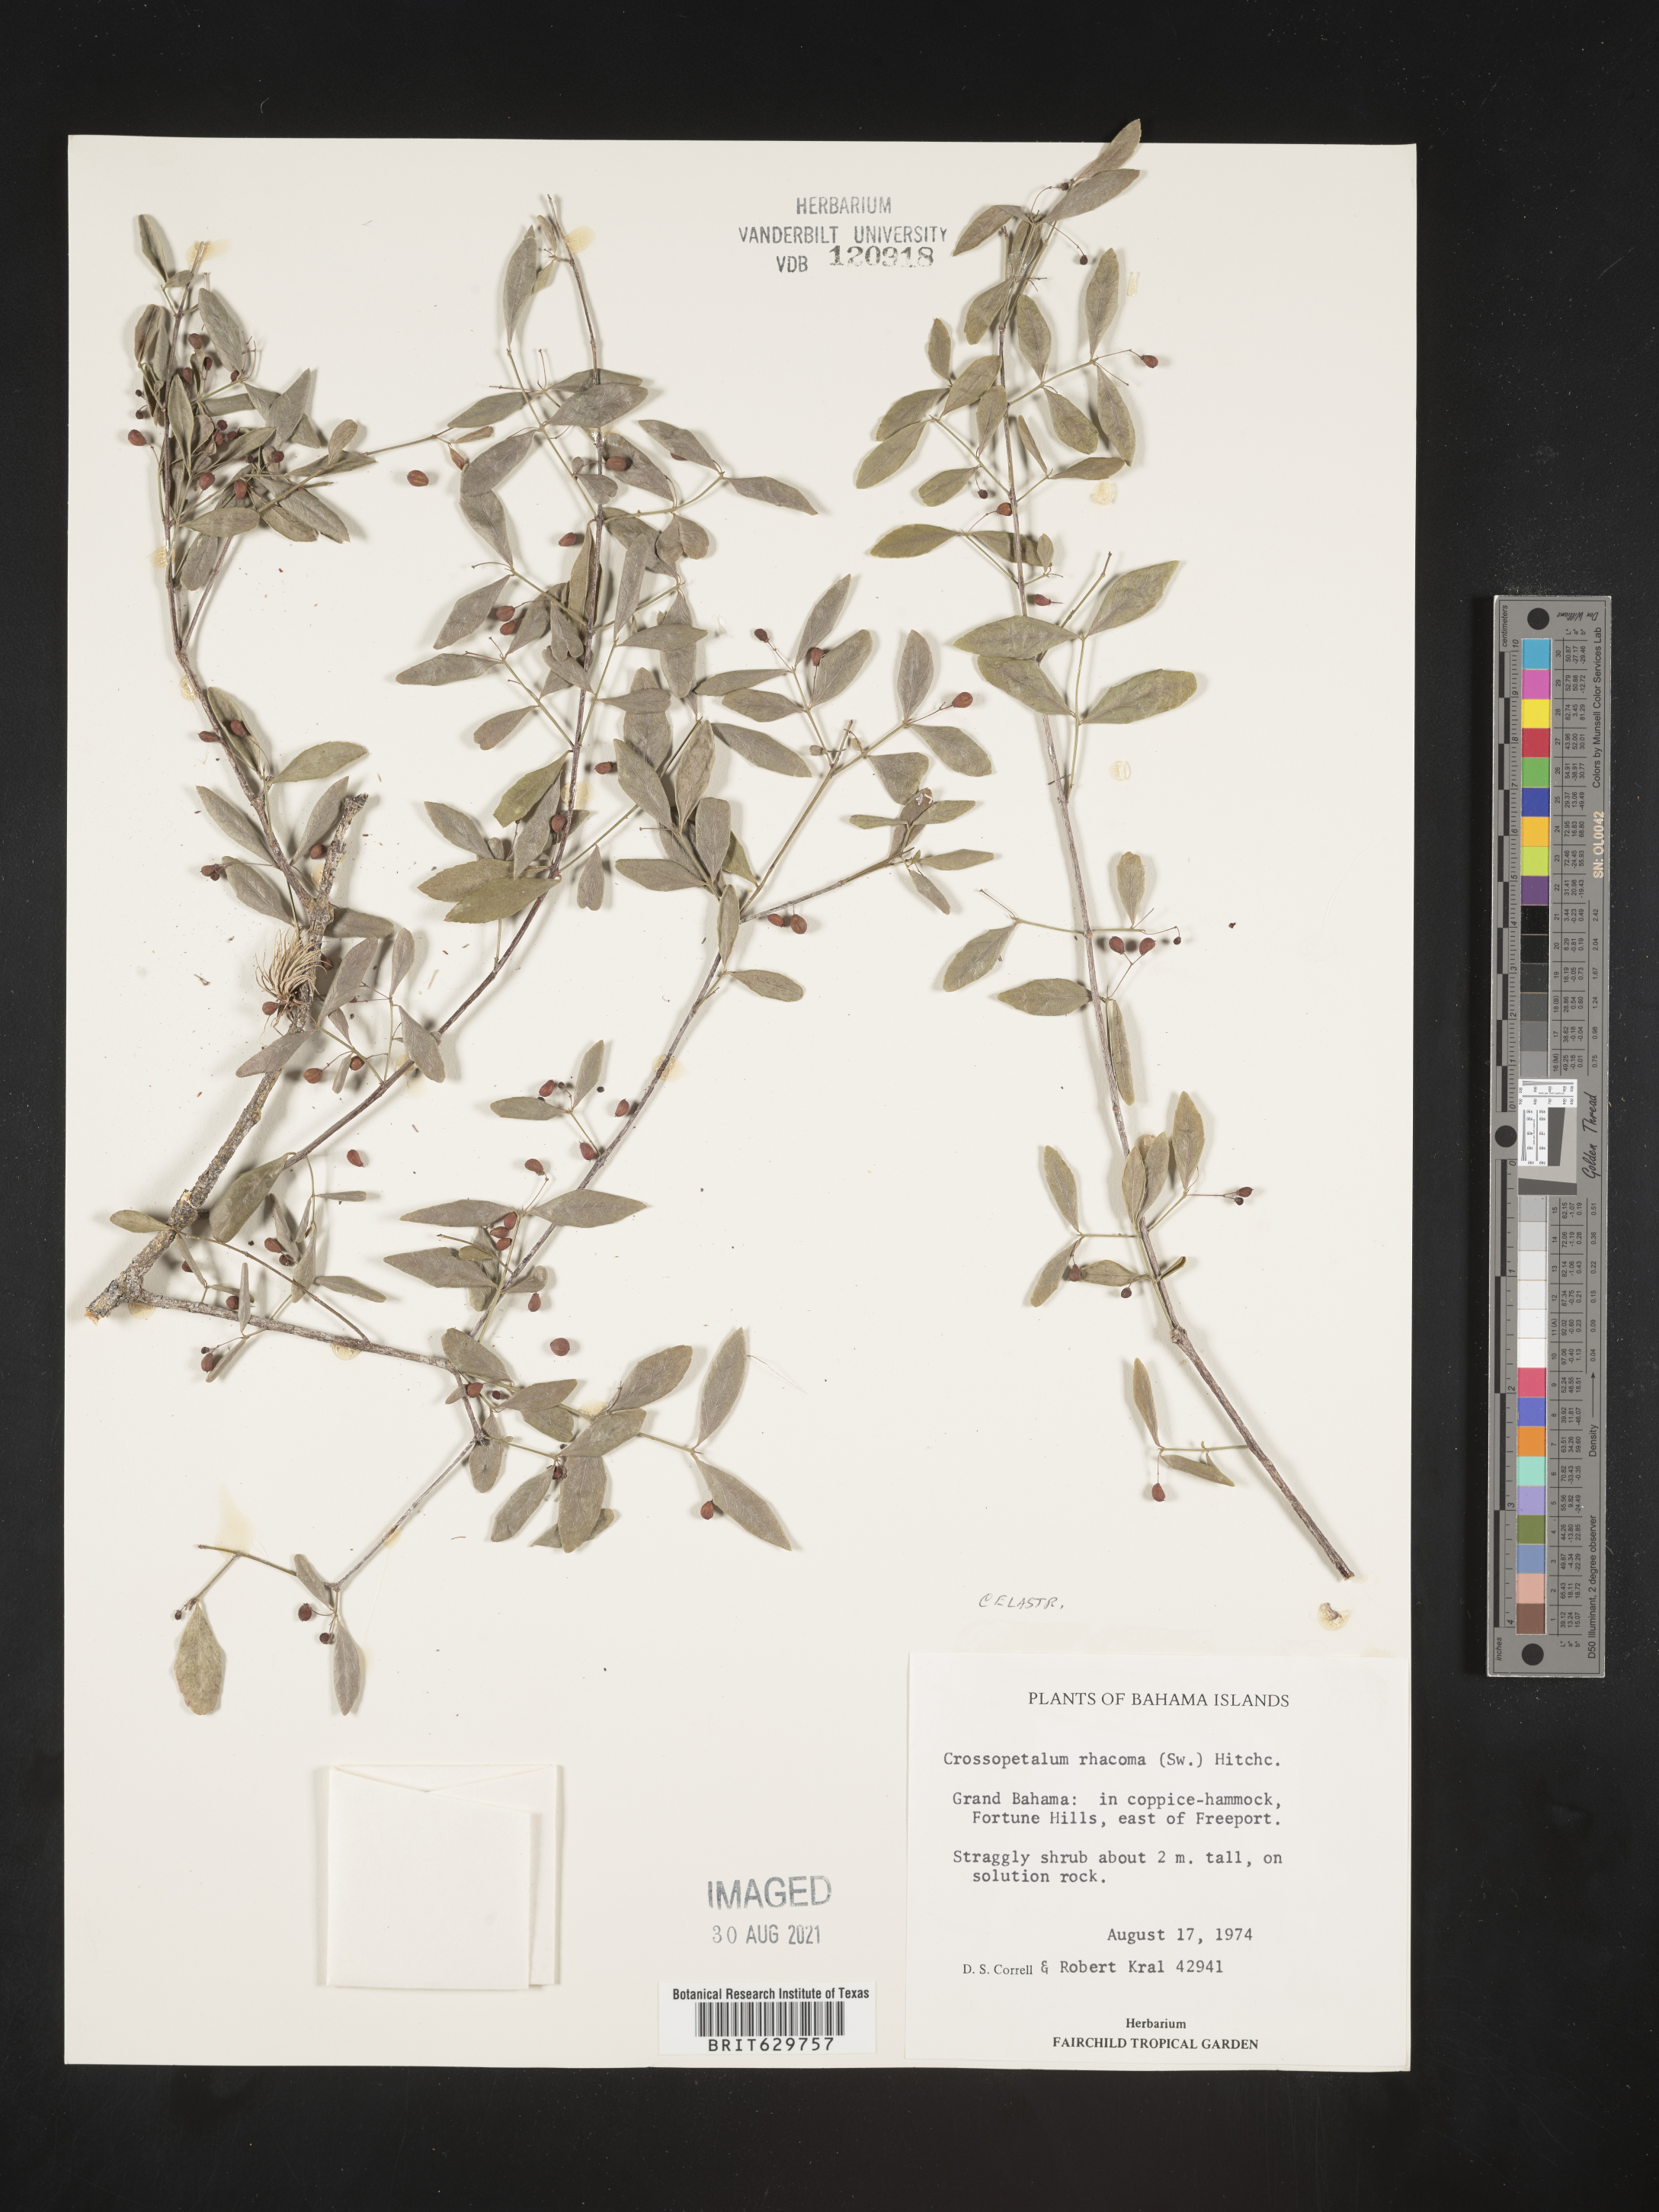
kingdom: Plantae
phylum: Tracheophyta
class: Magnoliopsida
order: Celastrales
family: Celastraceae
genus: Crossopetalum
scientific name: Crossopetalum rhacoma
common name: Maidenberry
